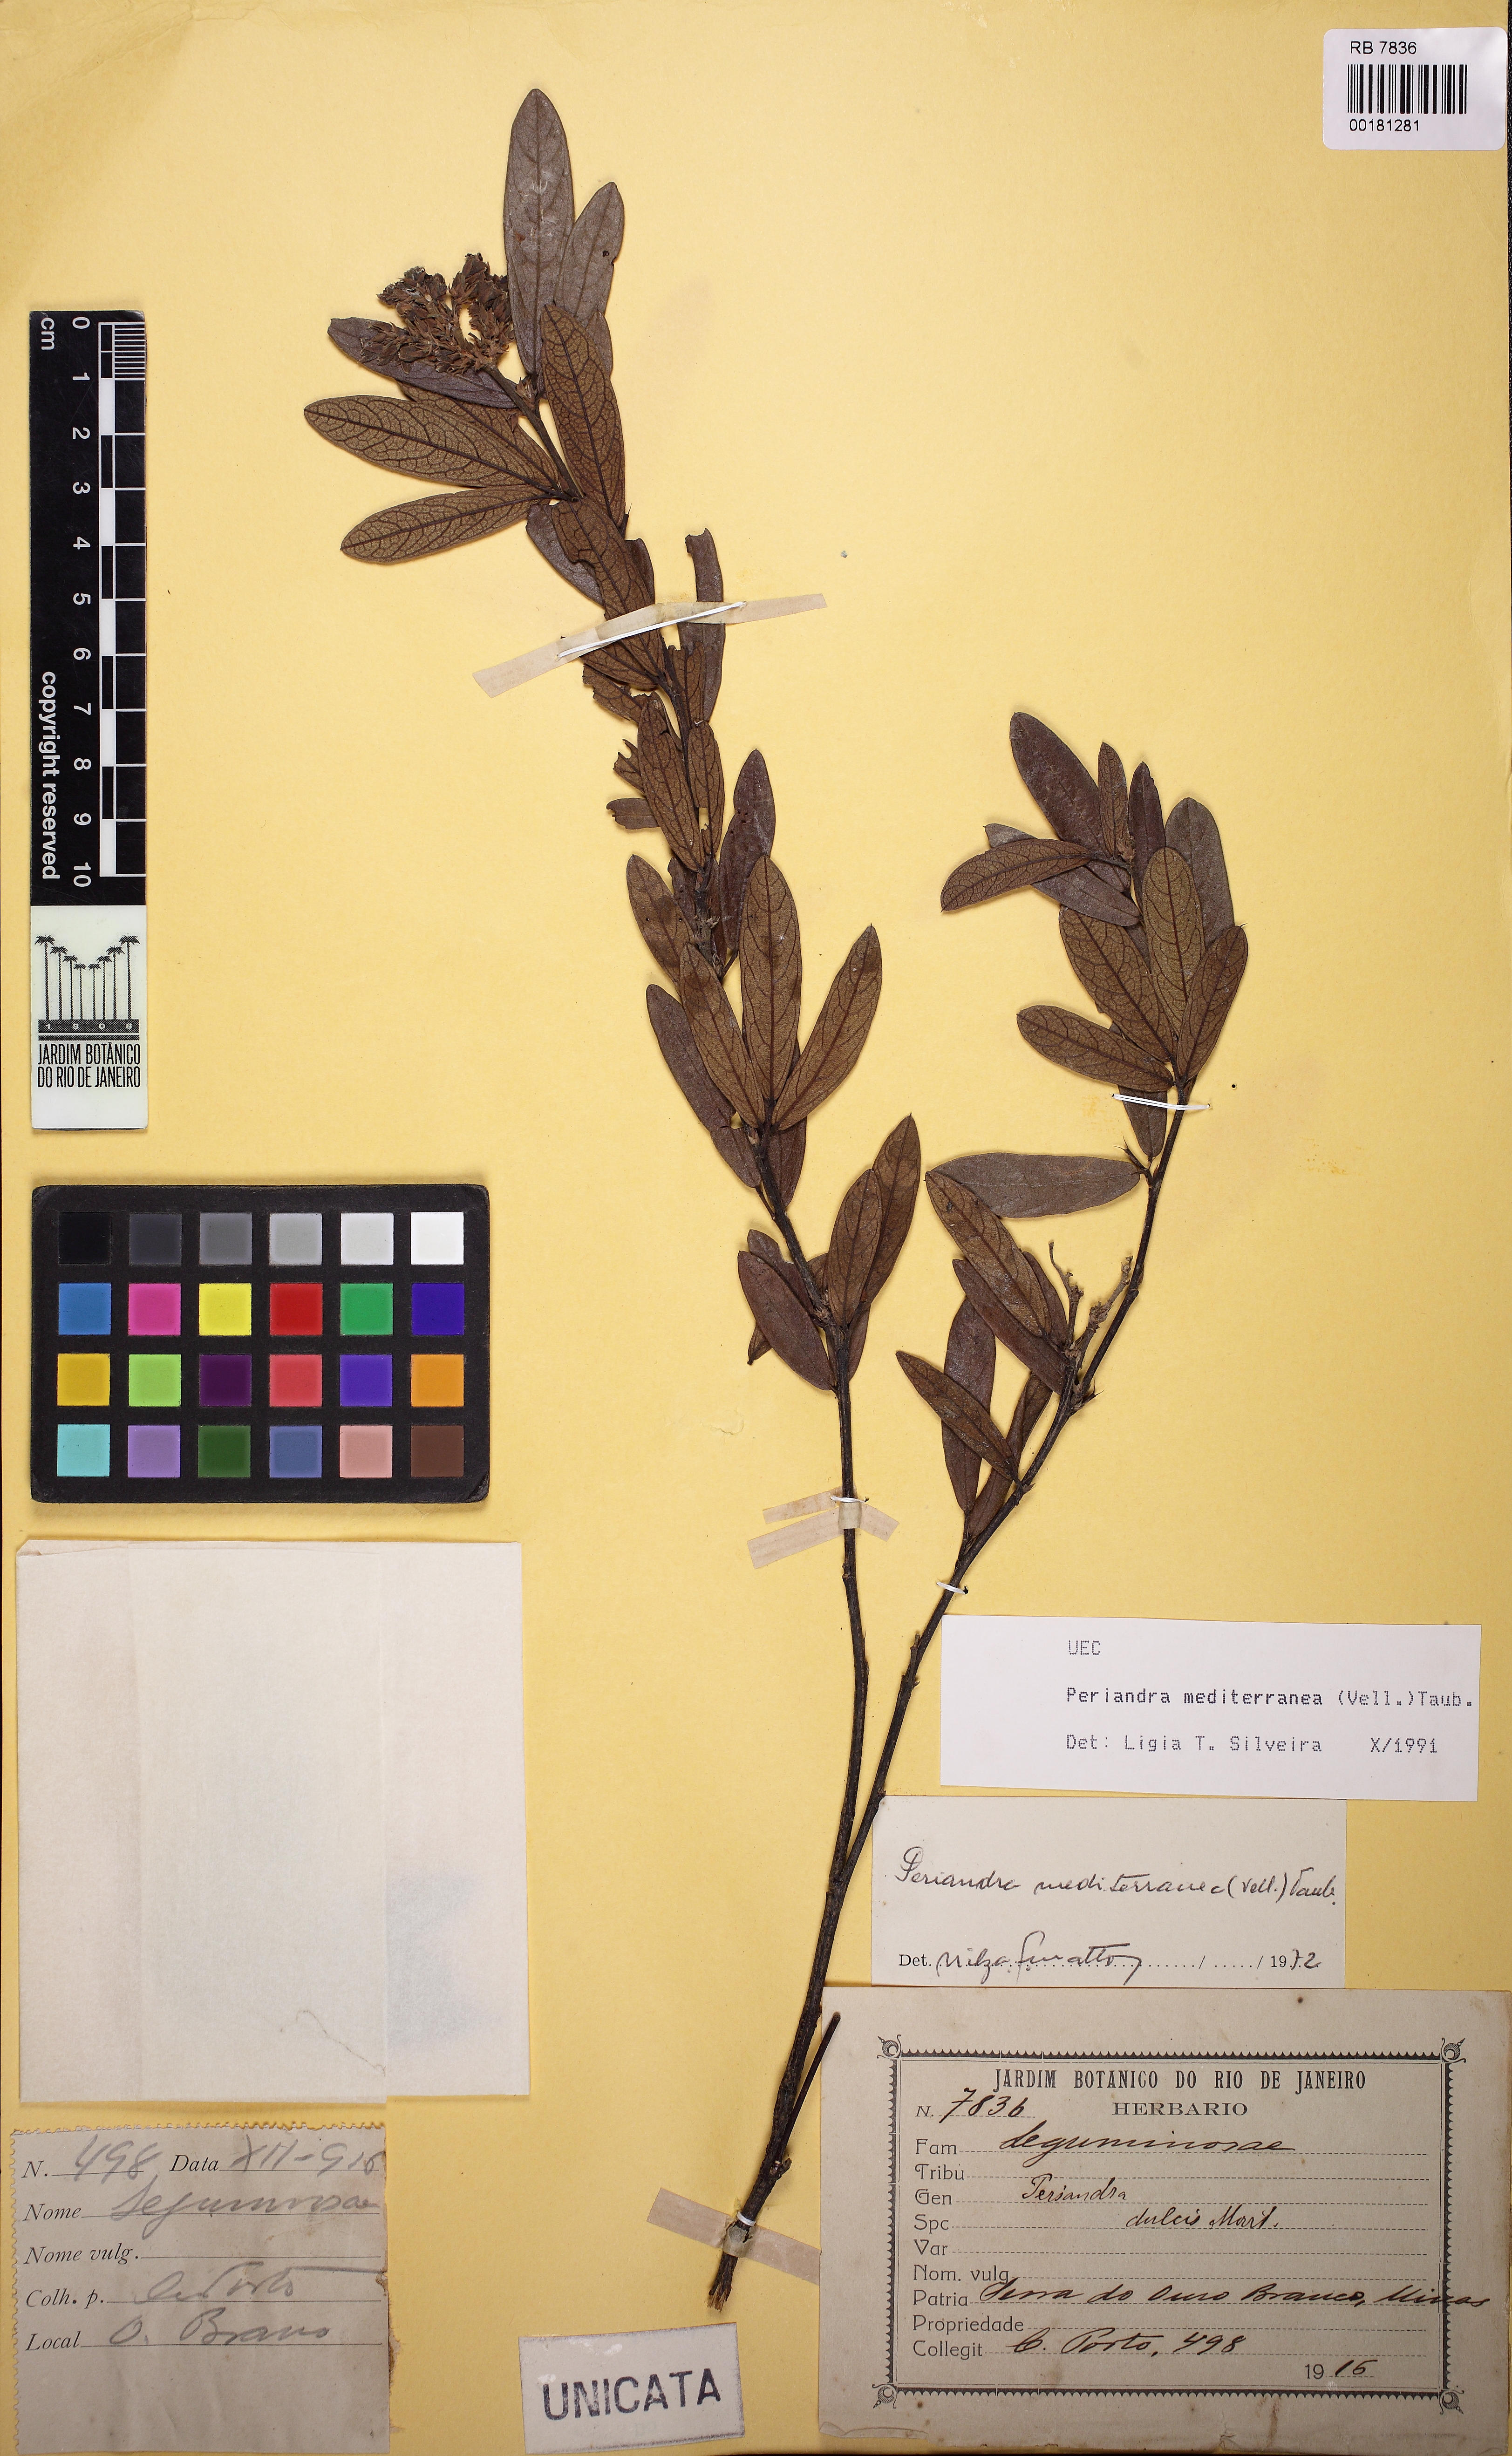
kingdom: Plantae
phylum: Tracheophyta
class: Magnoliopsida
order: Fabales
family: Fabaceae
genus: Periandra
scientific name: Periandra mediterranea
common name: Brazilian licorice
